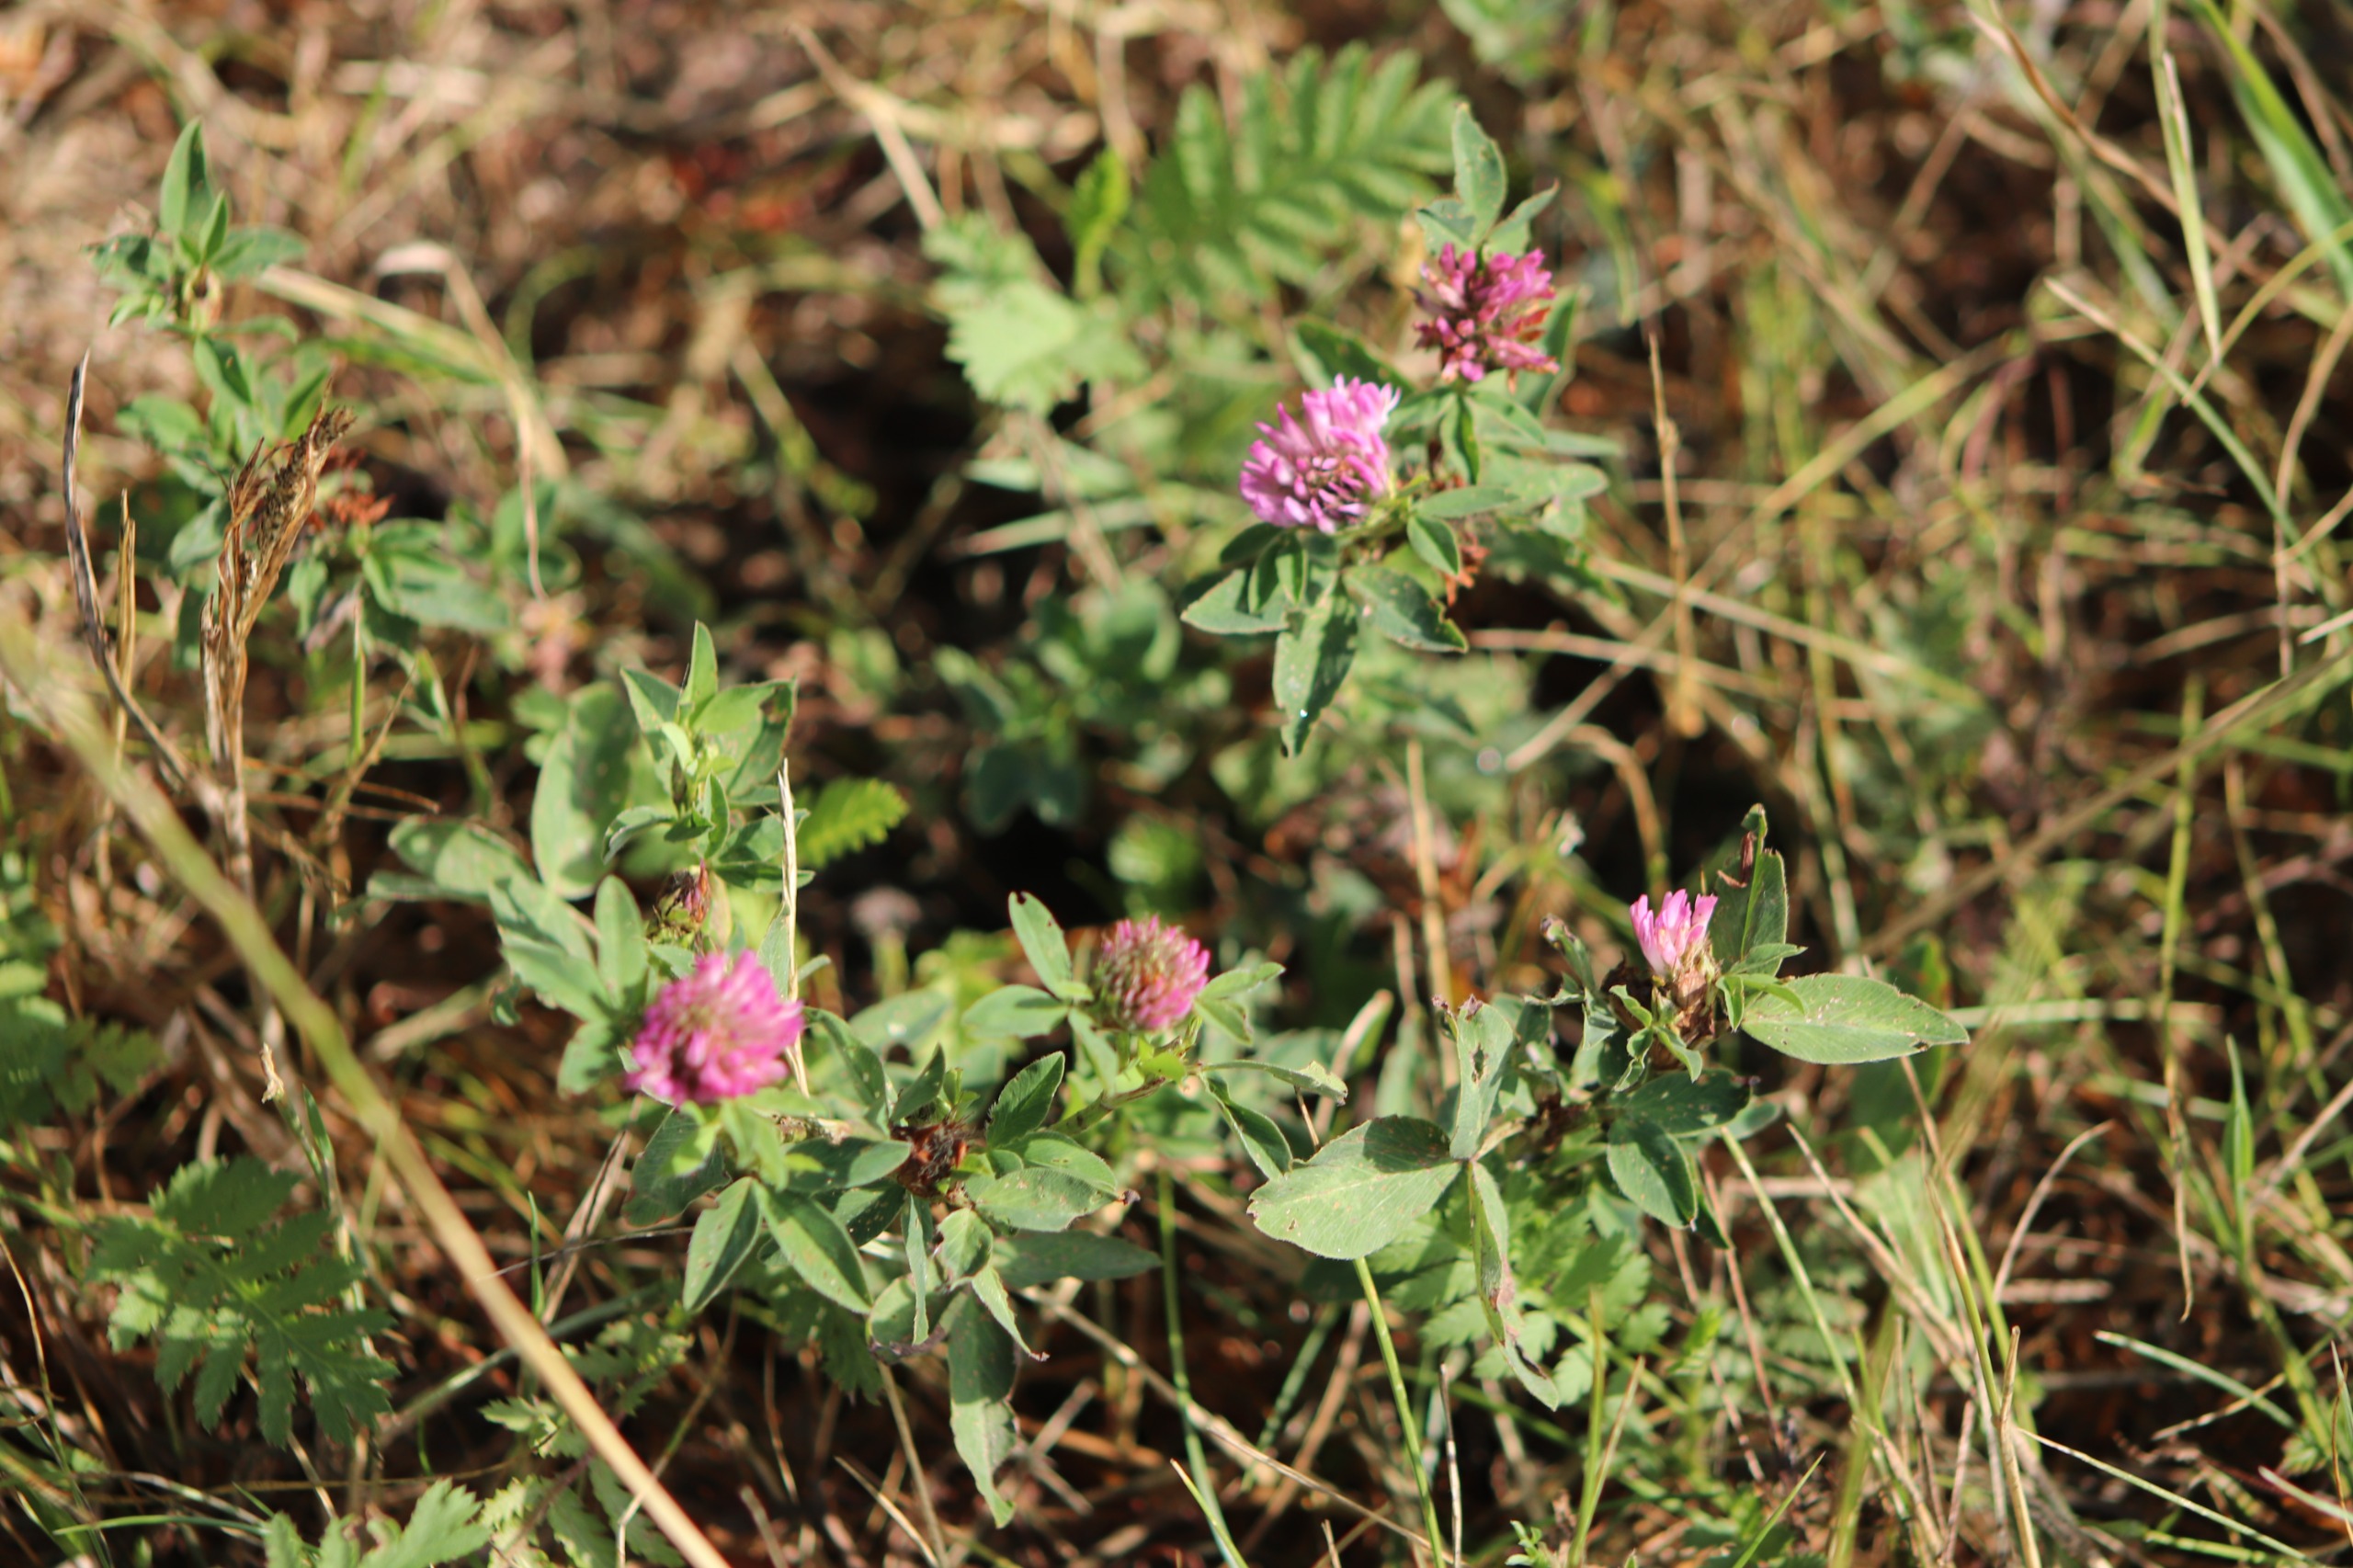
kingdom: Plantae
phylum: Tracheophyta
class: Magnoliopsida
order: Fabales
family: Fabaceae
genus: Trifolium
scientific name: Trifolium pratense
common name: Rød-kløver
